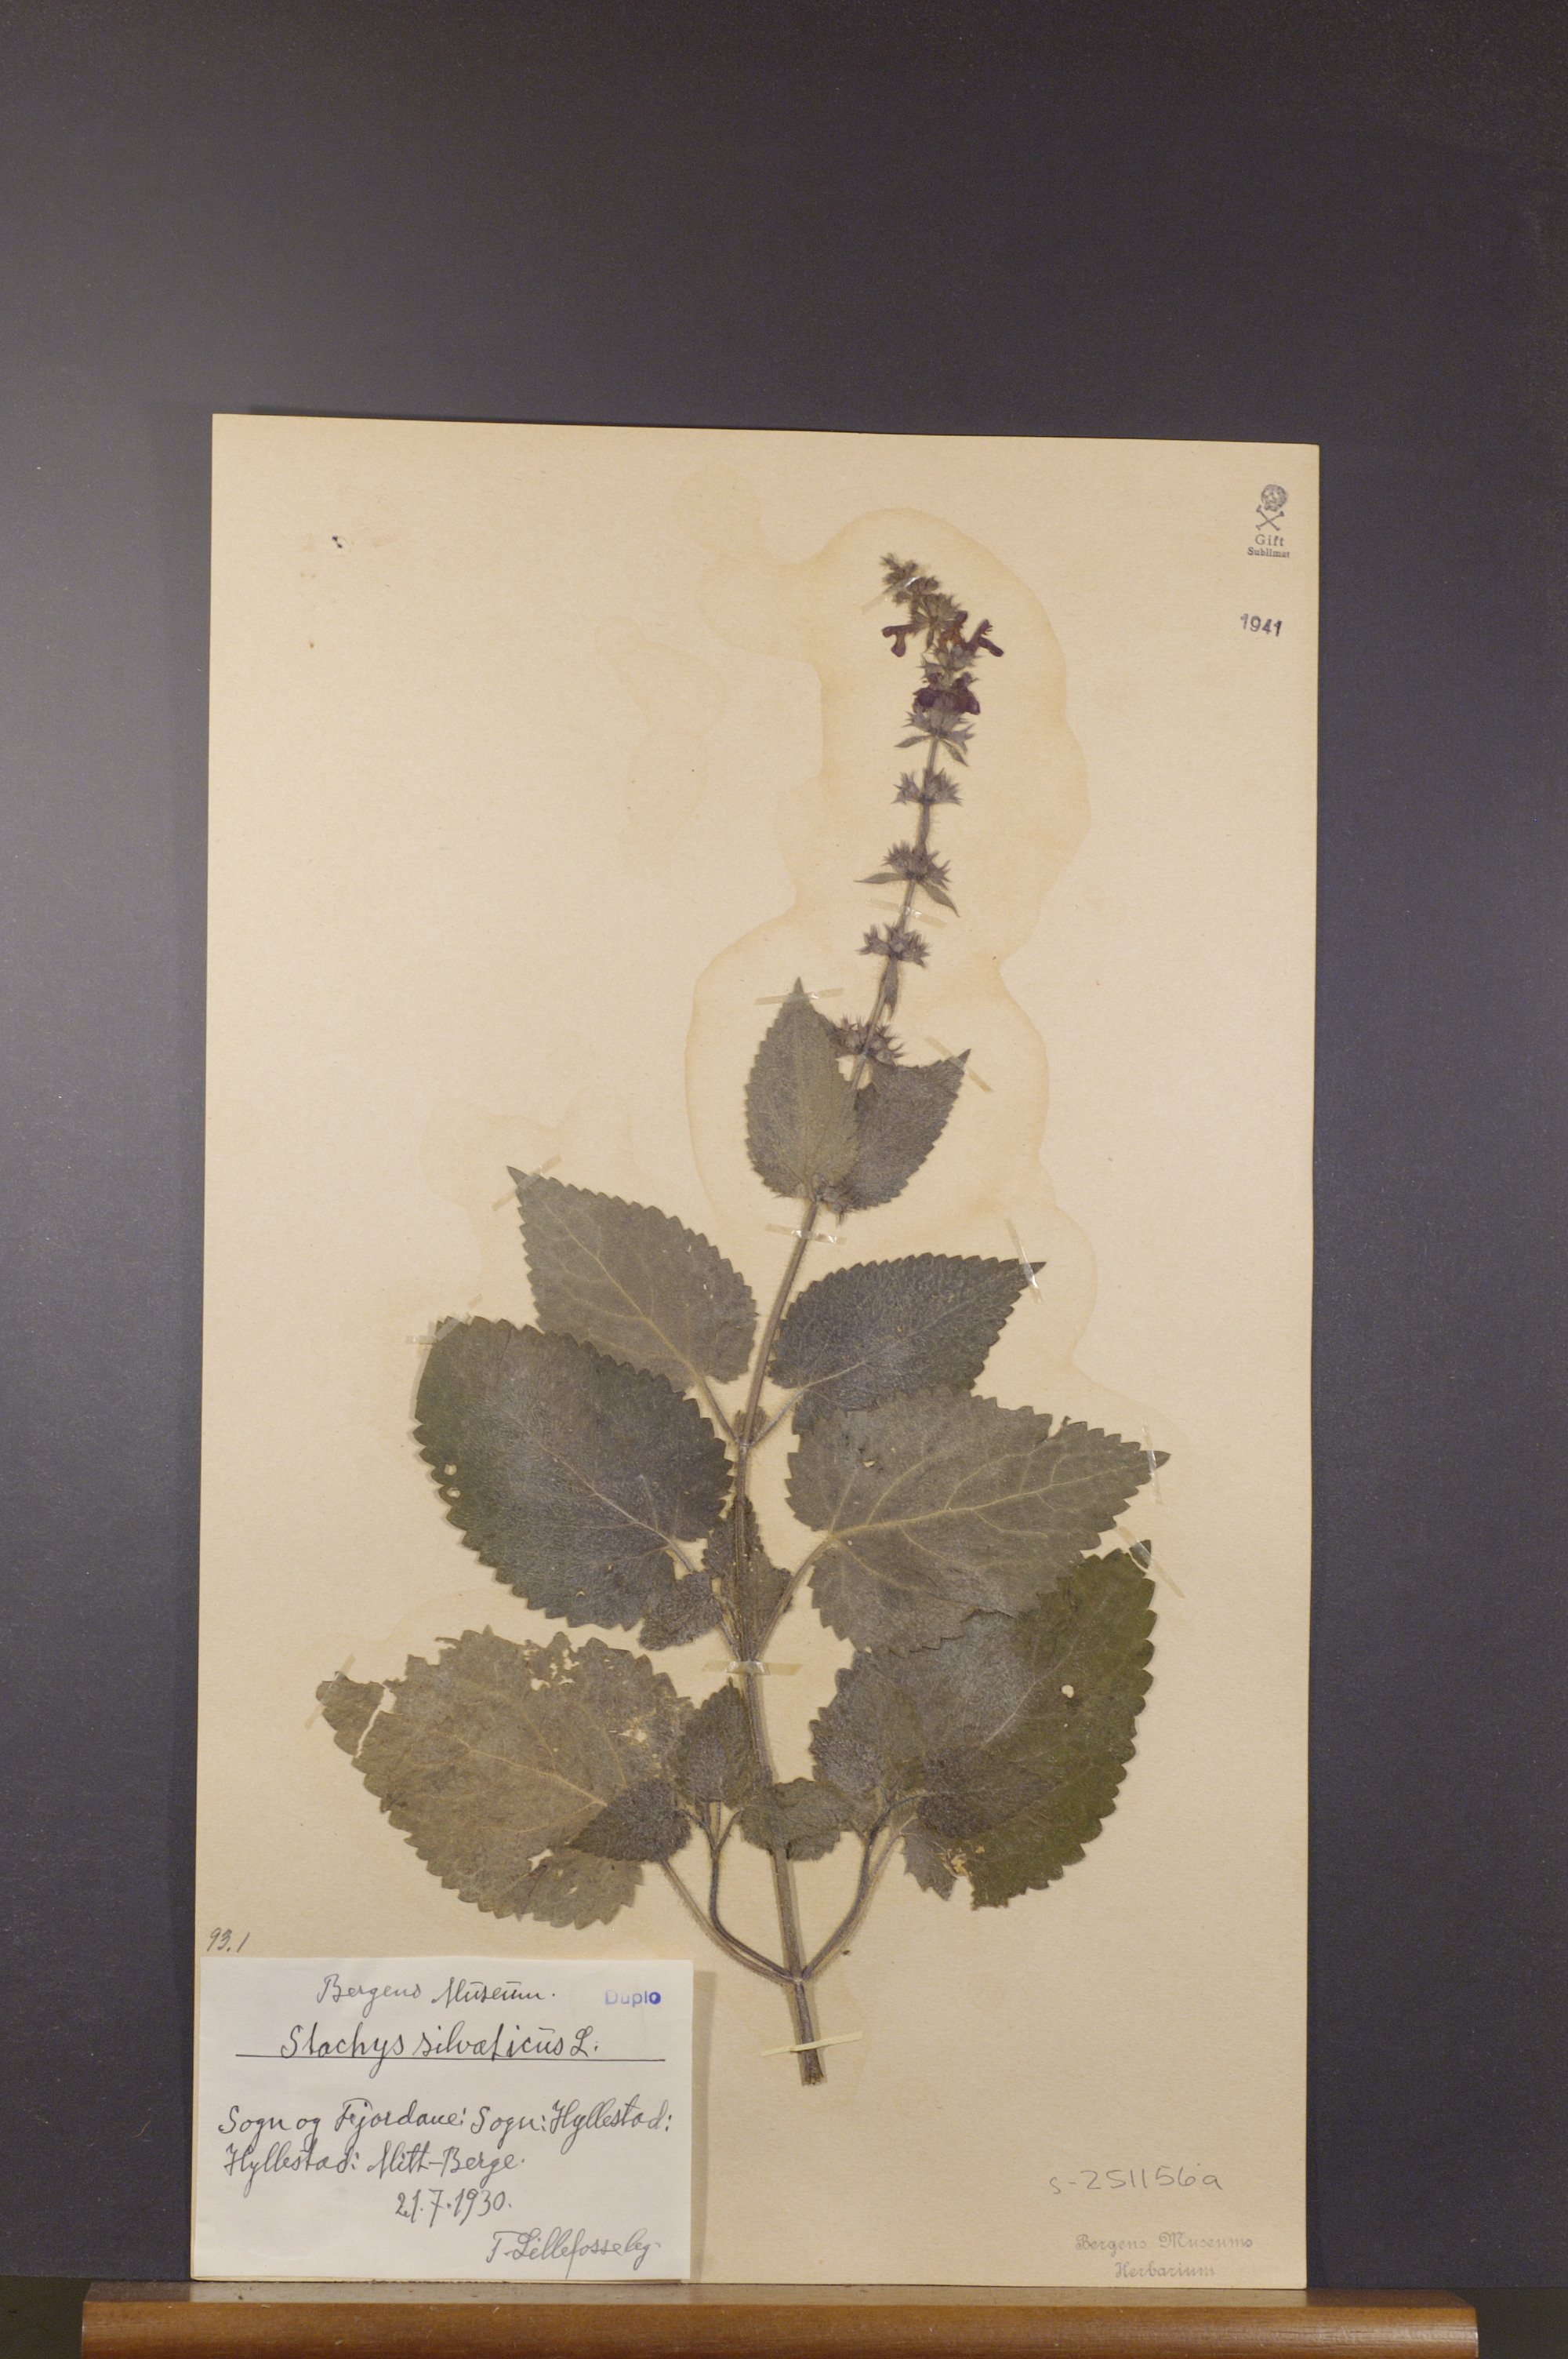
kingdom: Plantae
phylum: Tracheophyta
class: Magnoliopsida
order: Lamiales
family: Lamiaceae
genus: Stachys
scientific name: Stachys sylvatica
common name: Hedge woundwort
